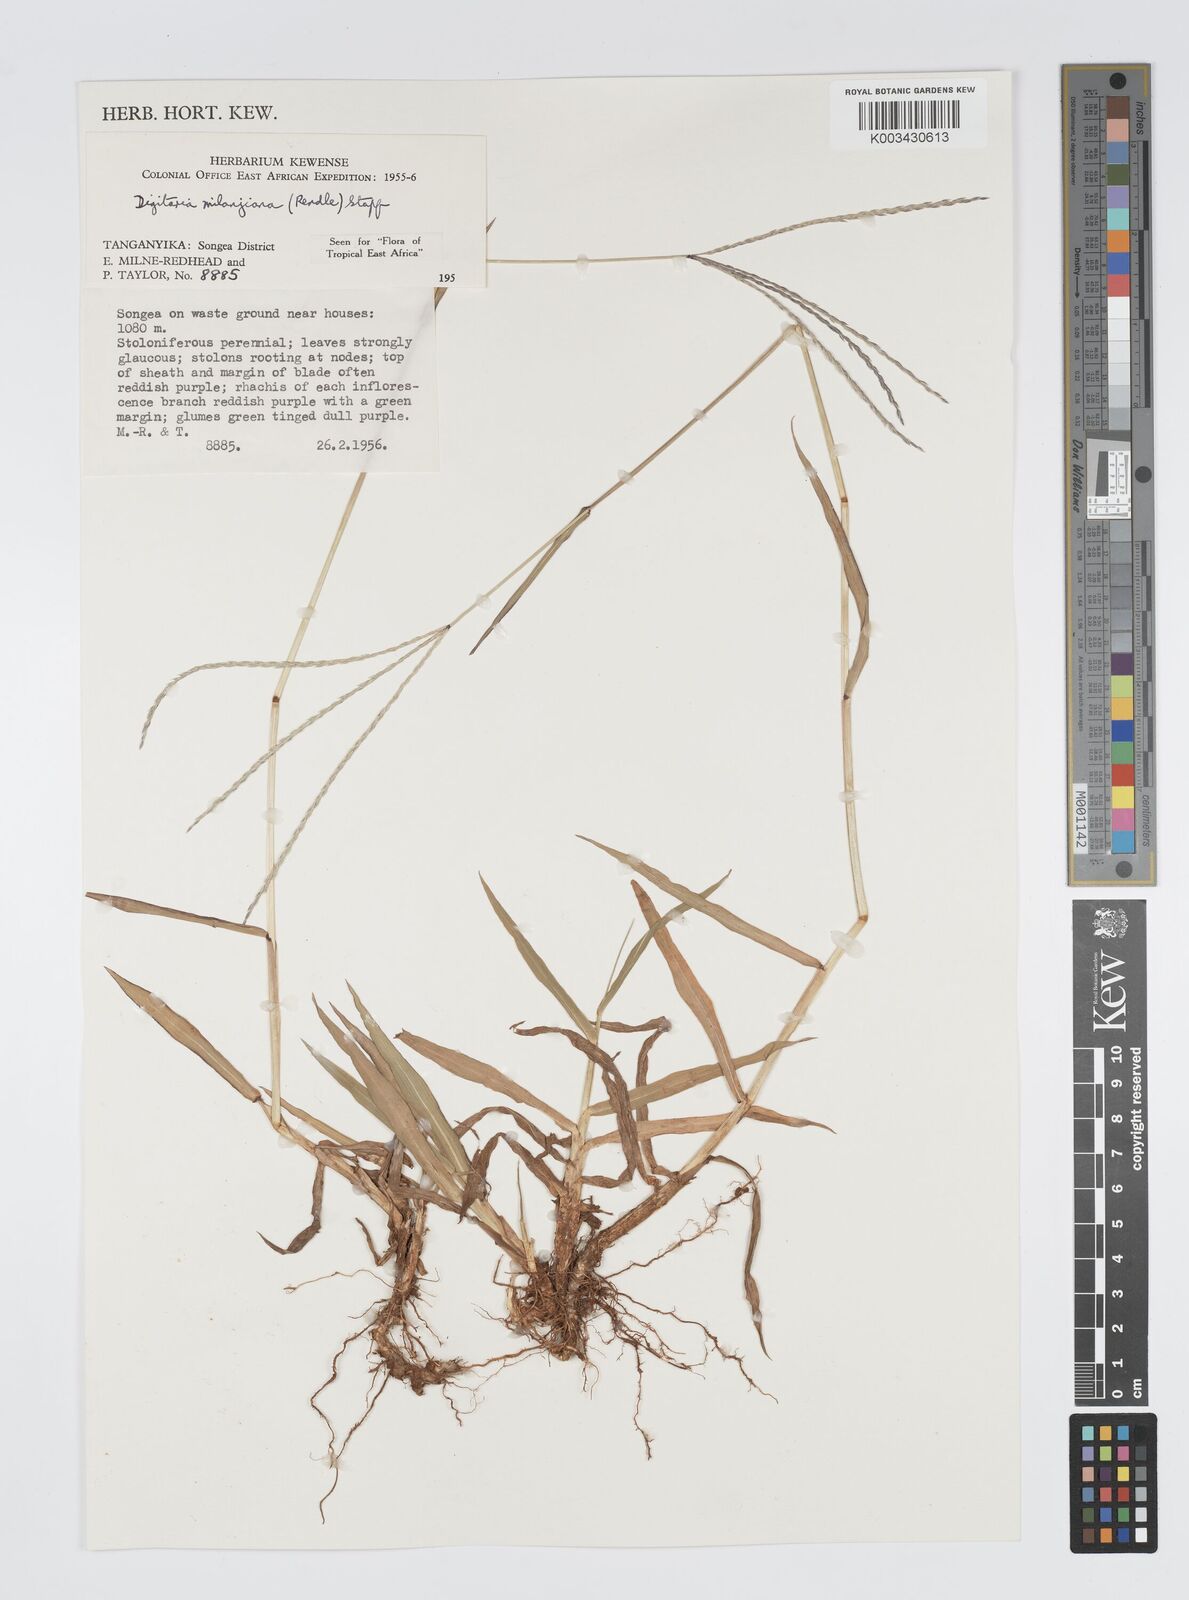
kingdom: Plantae
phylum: Tracheophyta
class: Liliopsida
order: Poales
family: Poaceae
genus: Digitaria
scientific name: Digitaria milanjiana
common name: Madagascar crabgrass
